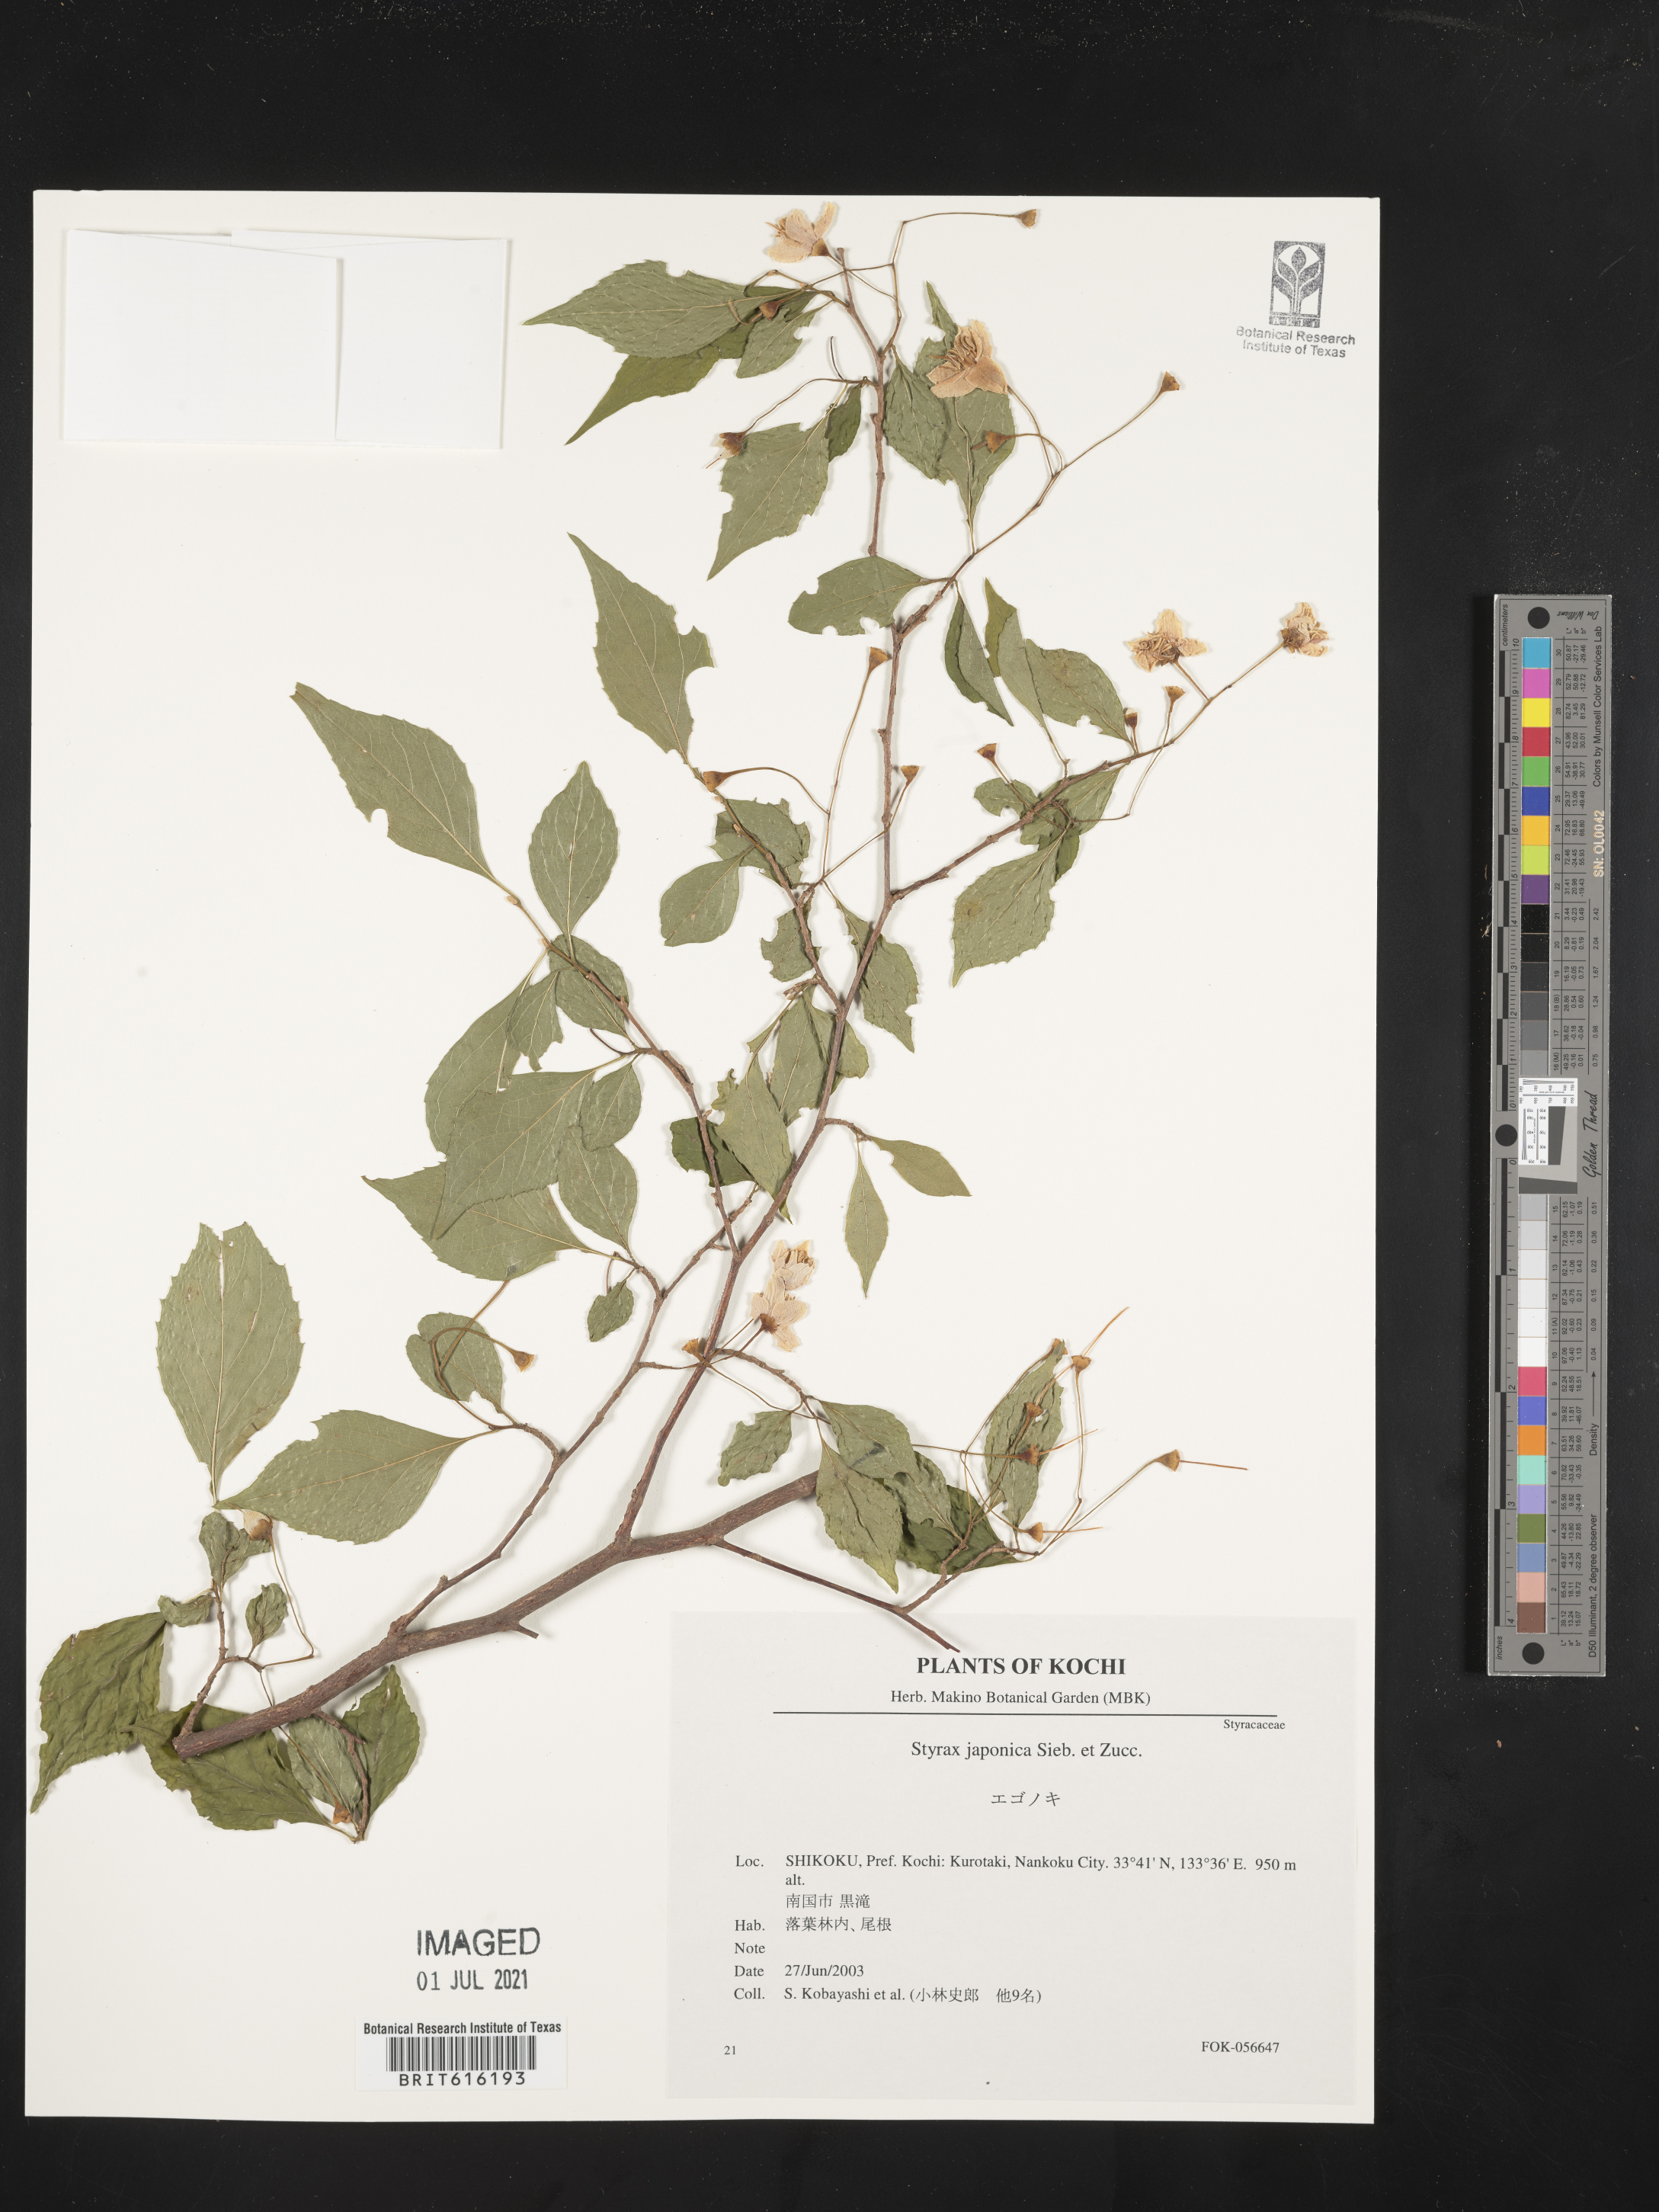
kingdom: Plantae
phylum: Tracheophyta
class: Magnoliopsida
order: Ericales
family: Styracaceae
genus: Styrax
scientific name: Styrax japonicus
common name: Japanese snowbell
